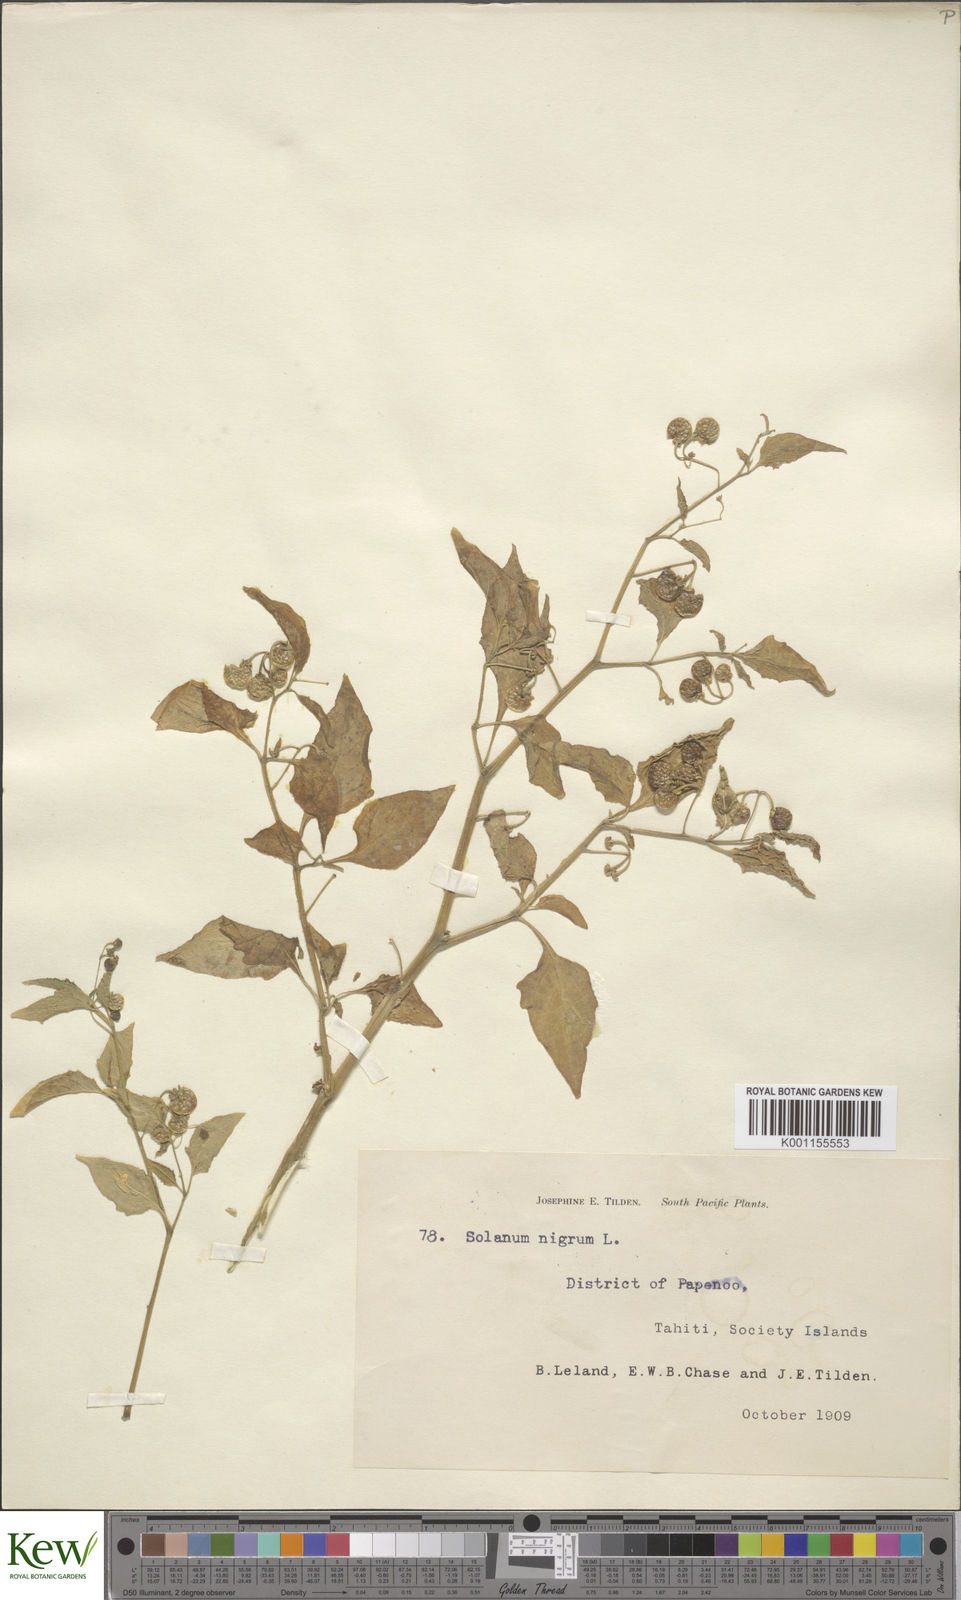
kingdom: Plantae
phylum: Tracheophyta
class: Magnoliopsida
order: Solanales
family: Solanaceae
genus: Solanum
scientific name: Solanum americanum
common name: American black nightshade
